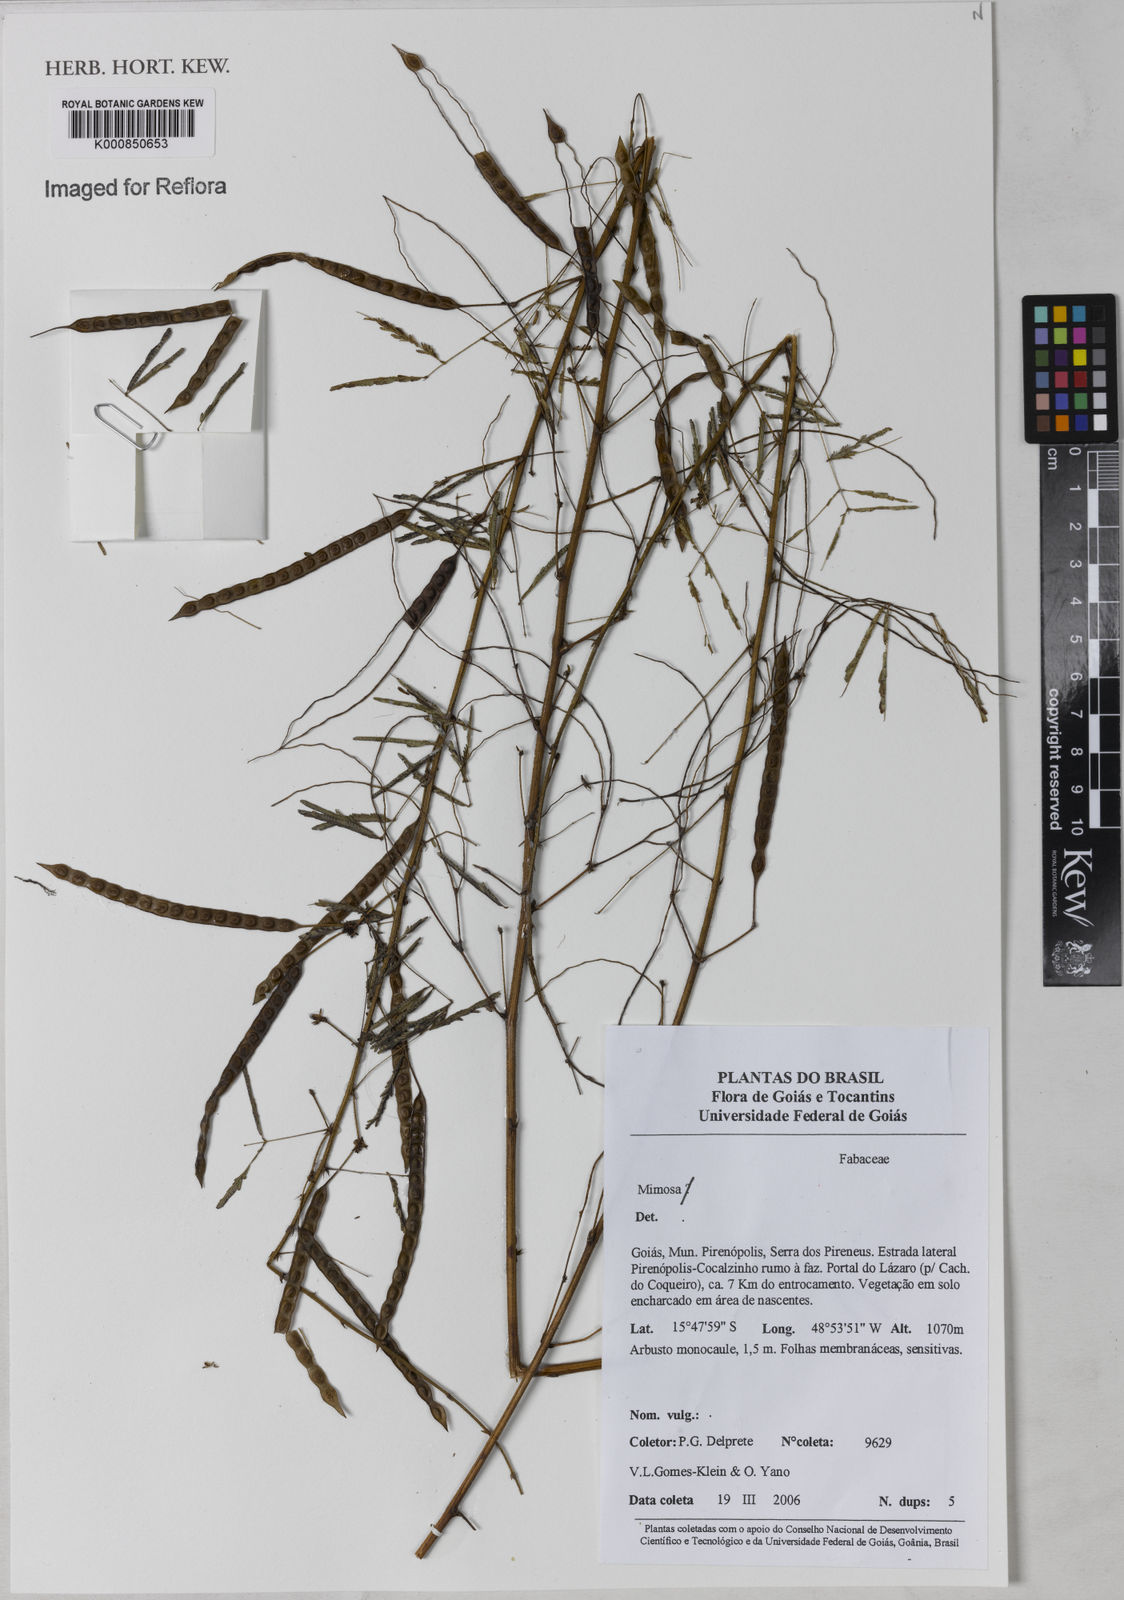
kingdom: Plantae
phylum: Tracheophyta
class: Magnoliopsida
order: Fabales
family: Fabaceae
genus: Mimosa
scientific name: Mimosa
